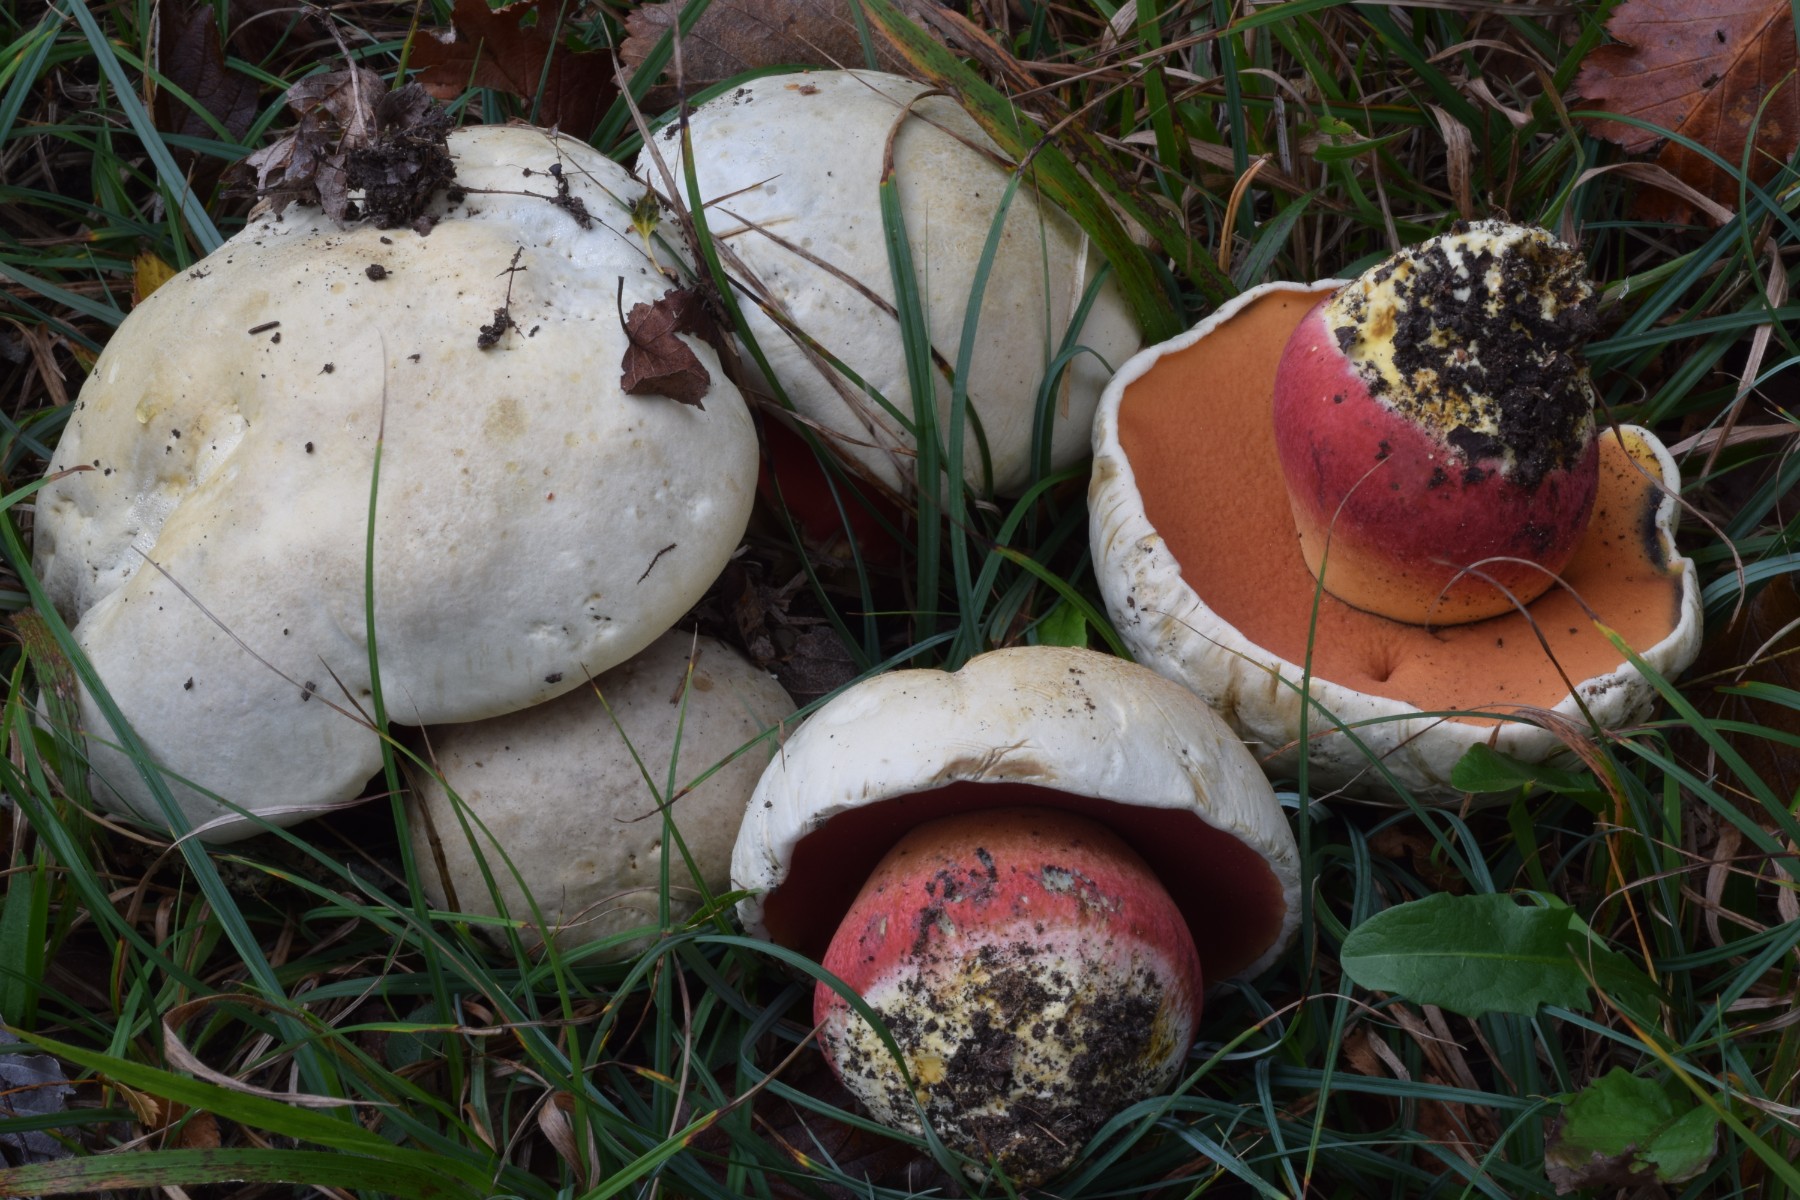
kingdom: Fungi
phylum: Basidiomycota
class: Agaricomycetes
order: Boletales
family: Boletaceae
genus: Rubroboletus
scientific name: Rubroboletus satanas
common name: Satans rørhat
